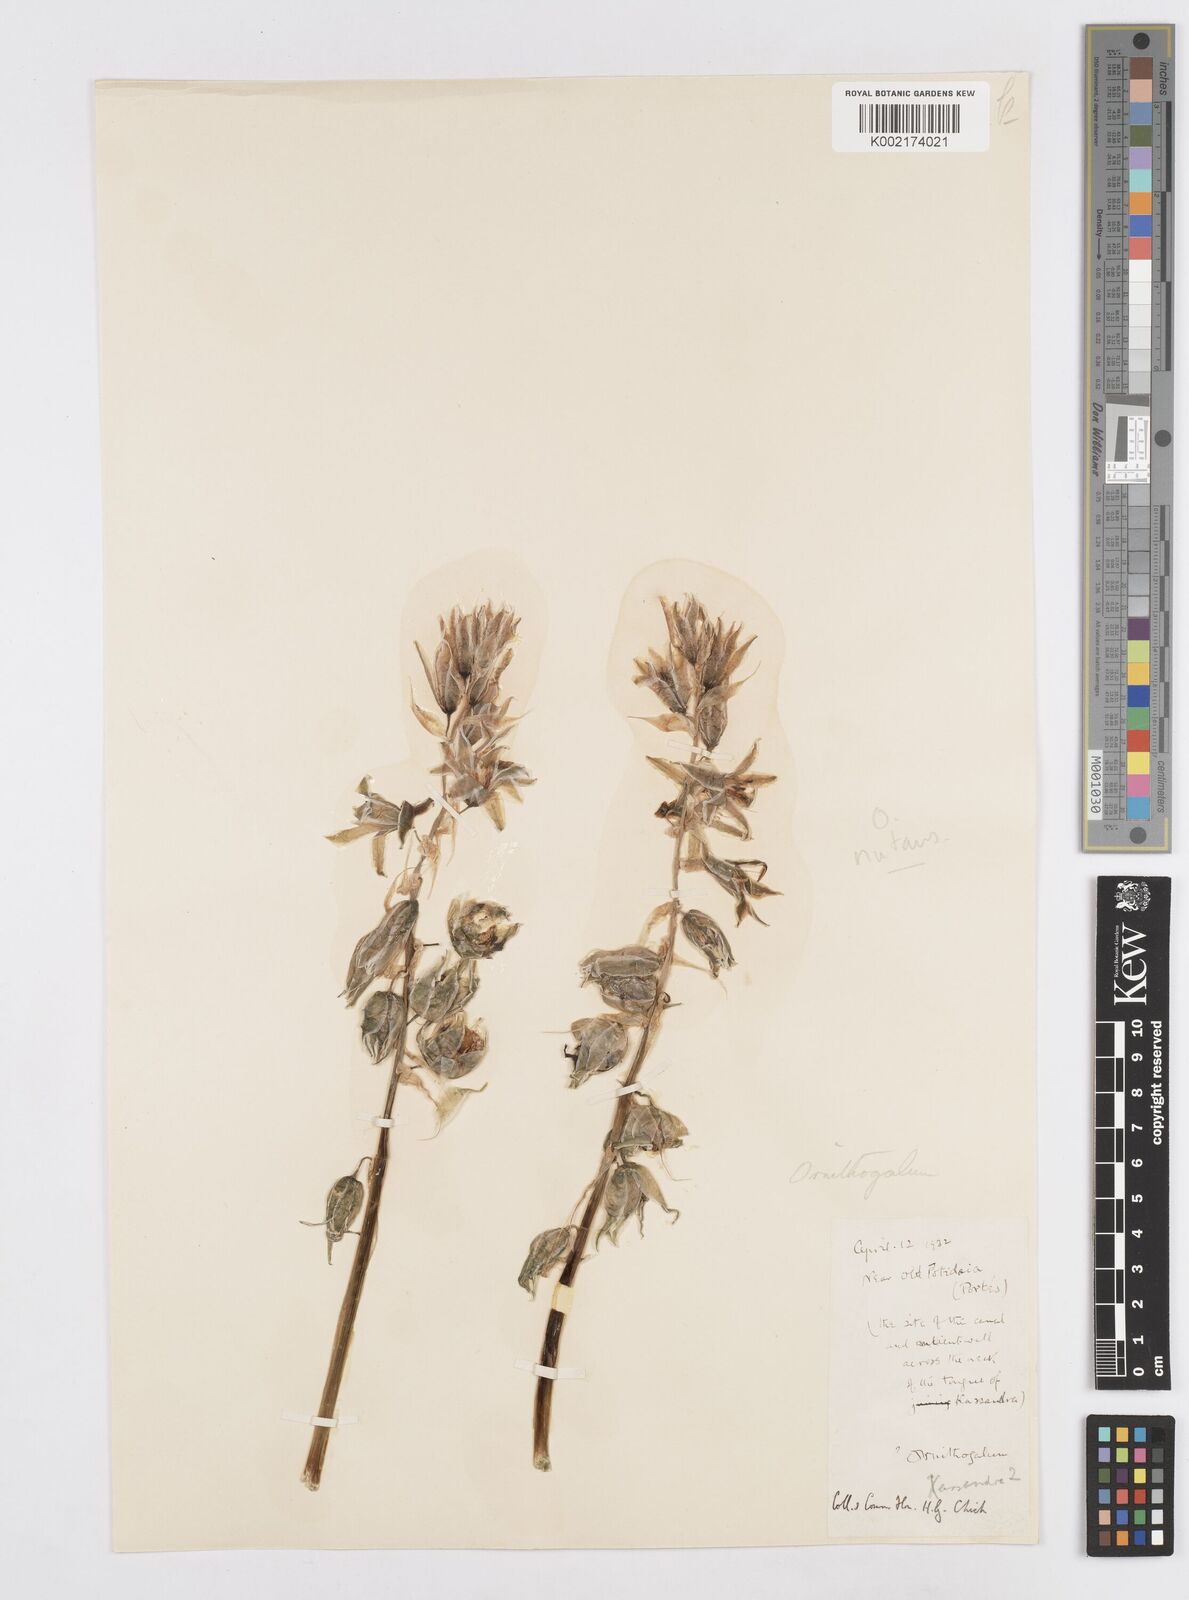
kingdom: Plantae
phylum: Tracheophyta
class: Liliopsida
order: Asparagales
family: Asparagaceae
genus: Ornithogalum
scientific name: Ornithogalum nutans
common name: Drooping star-of-bethlehem
